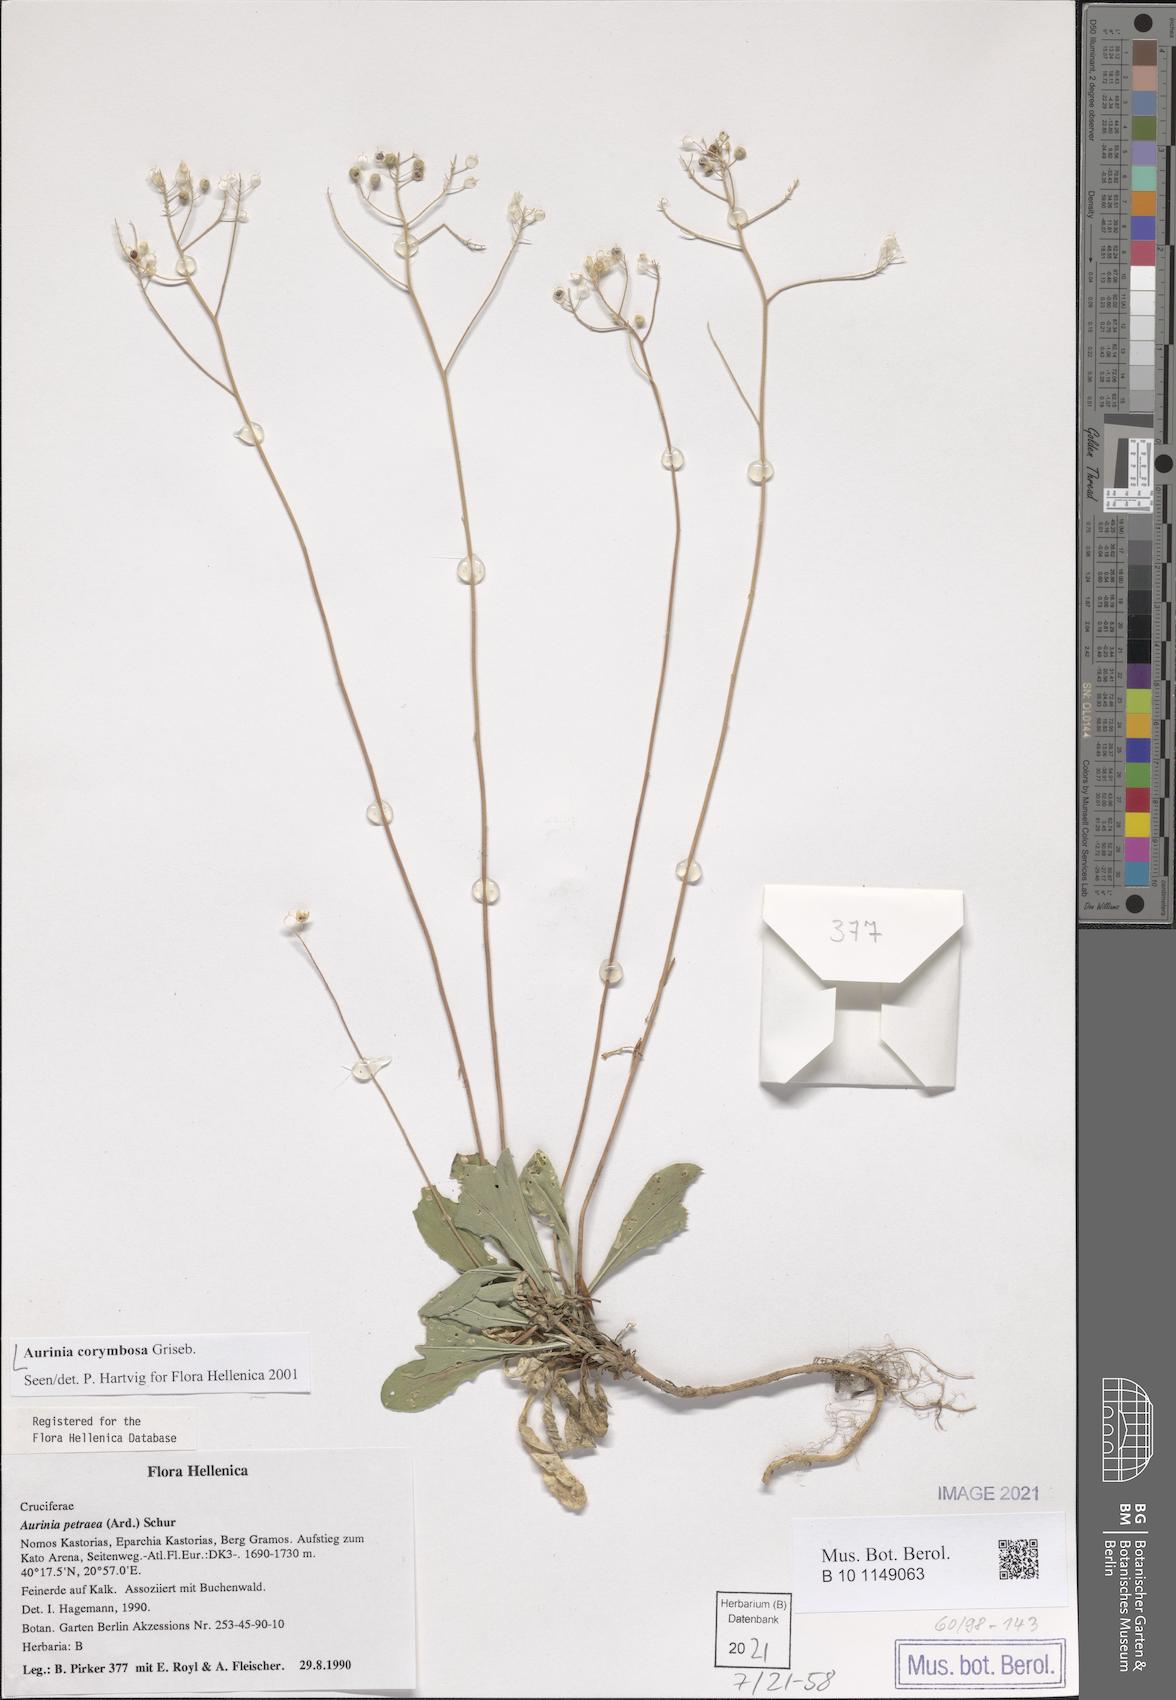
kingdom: Plantae
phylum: Tracheophyta
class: Magnoliopsida
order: Brassicales
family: Brassicaceae
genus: Aurinia
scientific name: Aurinia corymbosa
